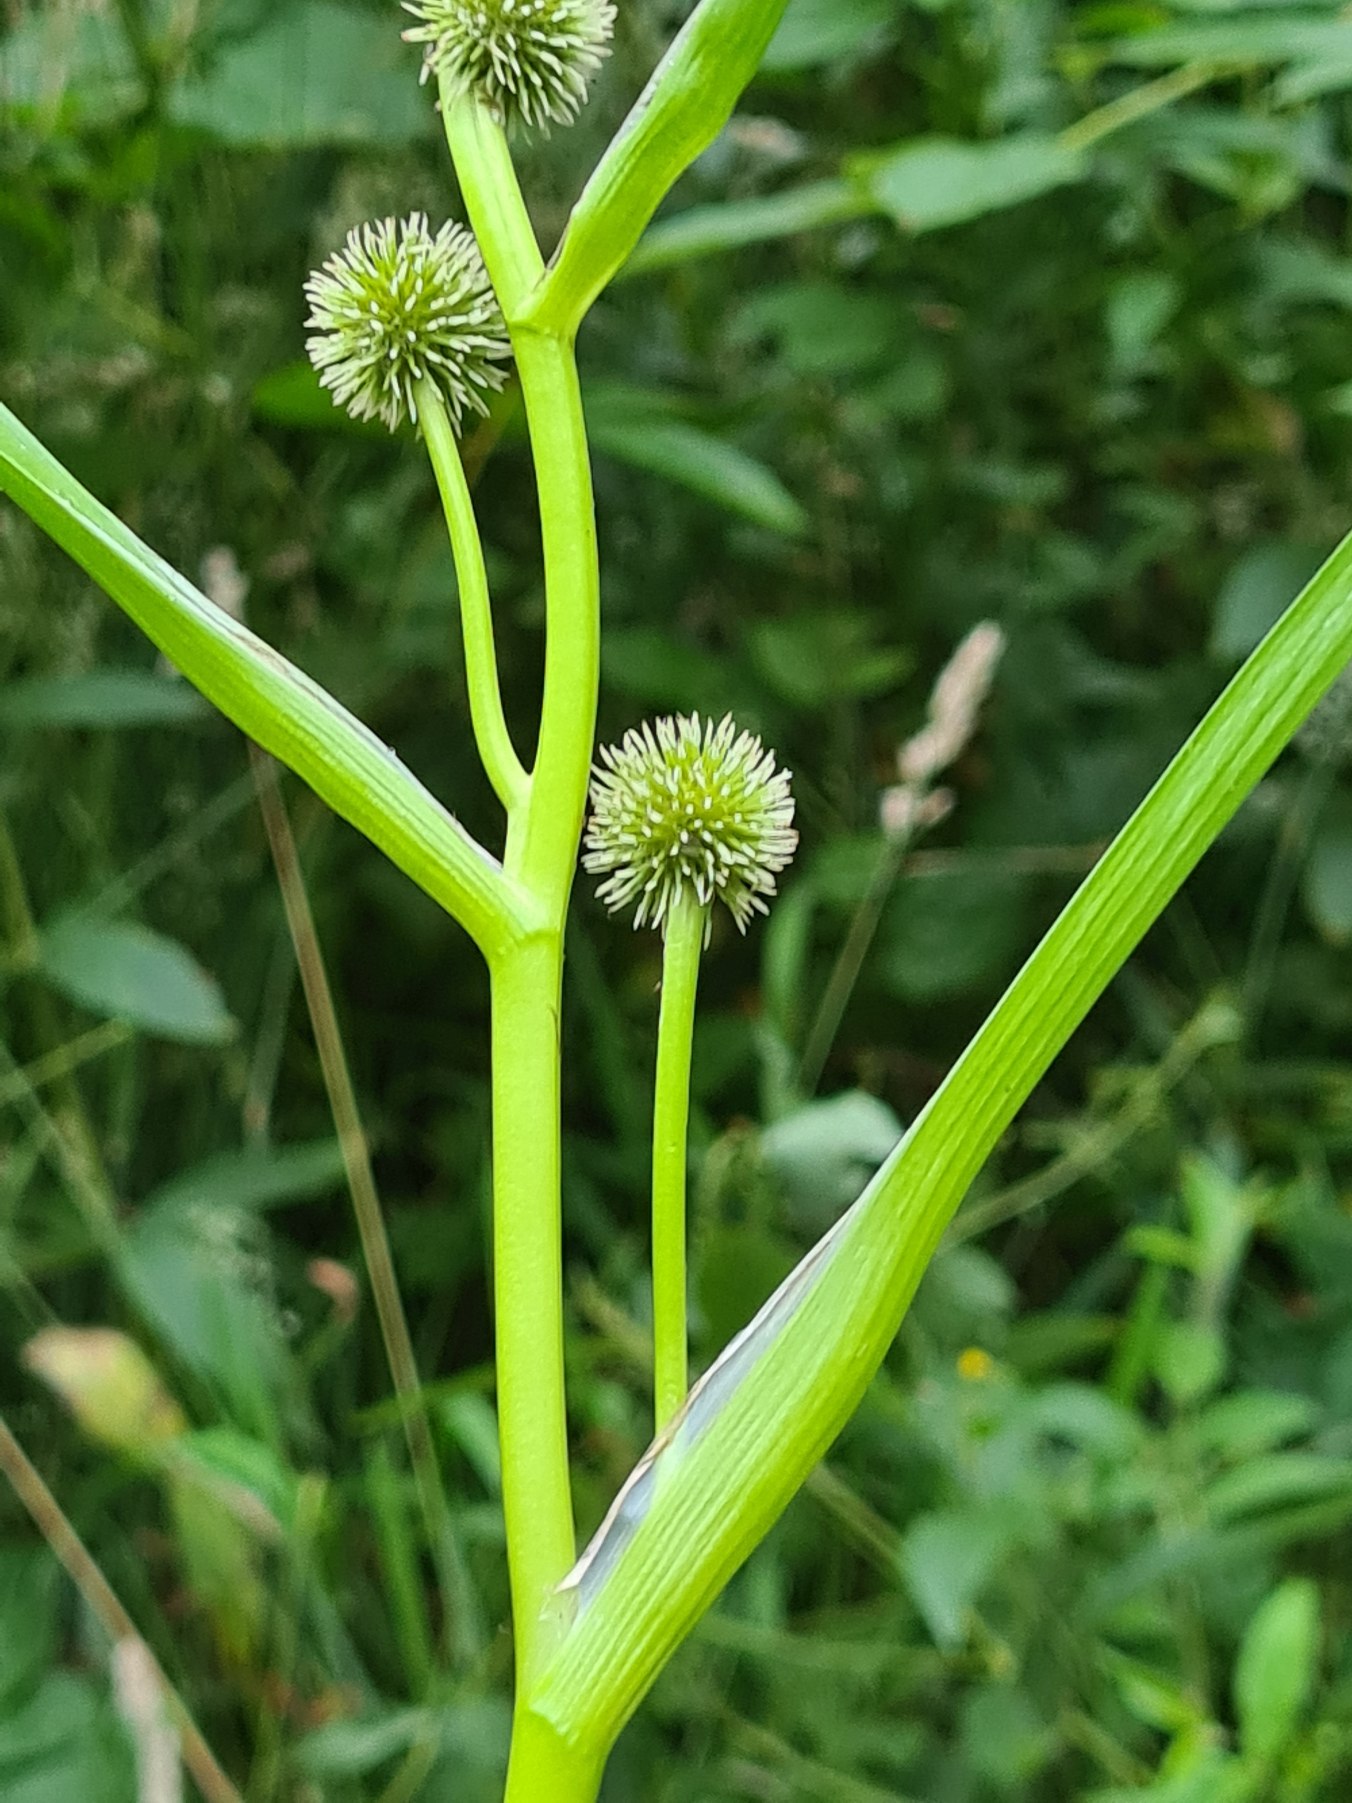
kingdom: Plantae
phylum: Tracheophyta
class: Liliopsida
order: Poales
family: Typhaceae
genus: Sparganium
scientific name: Sparganium erectum
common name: Grenet pindsvineknop
